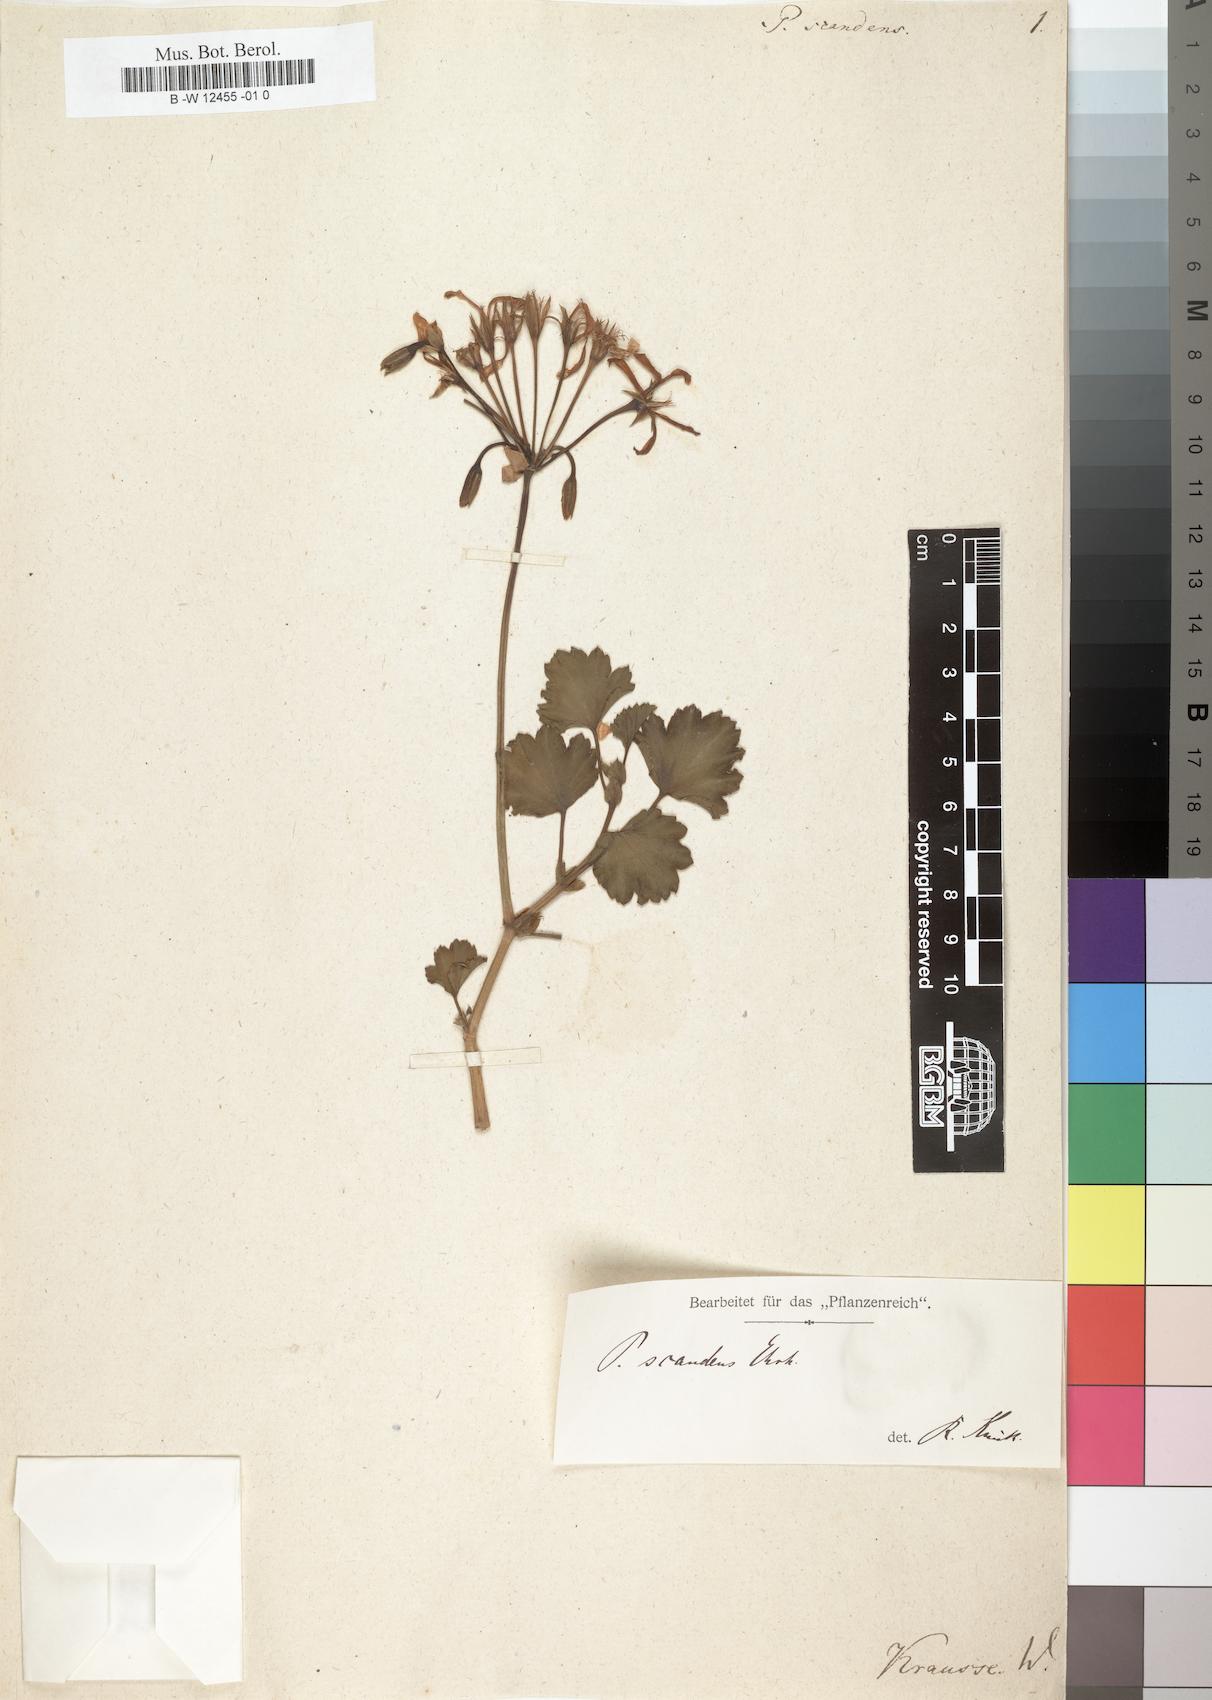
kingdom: Plantae
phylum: Tracheophyta
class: Magnoliopsida
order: Geraniales
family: Geraniaceae
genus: Pelargonium
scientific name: Pelargonium scandens
